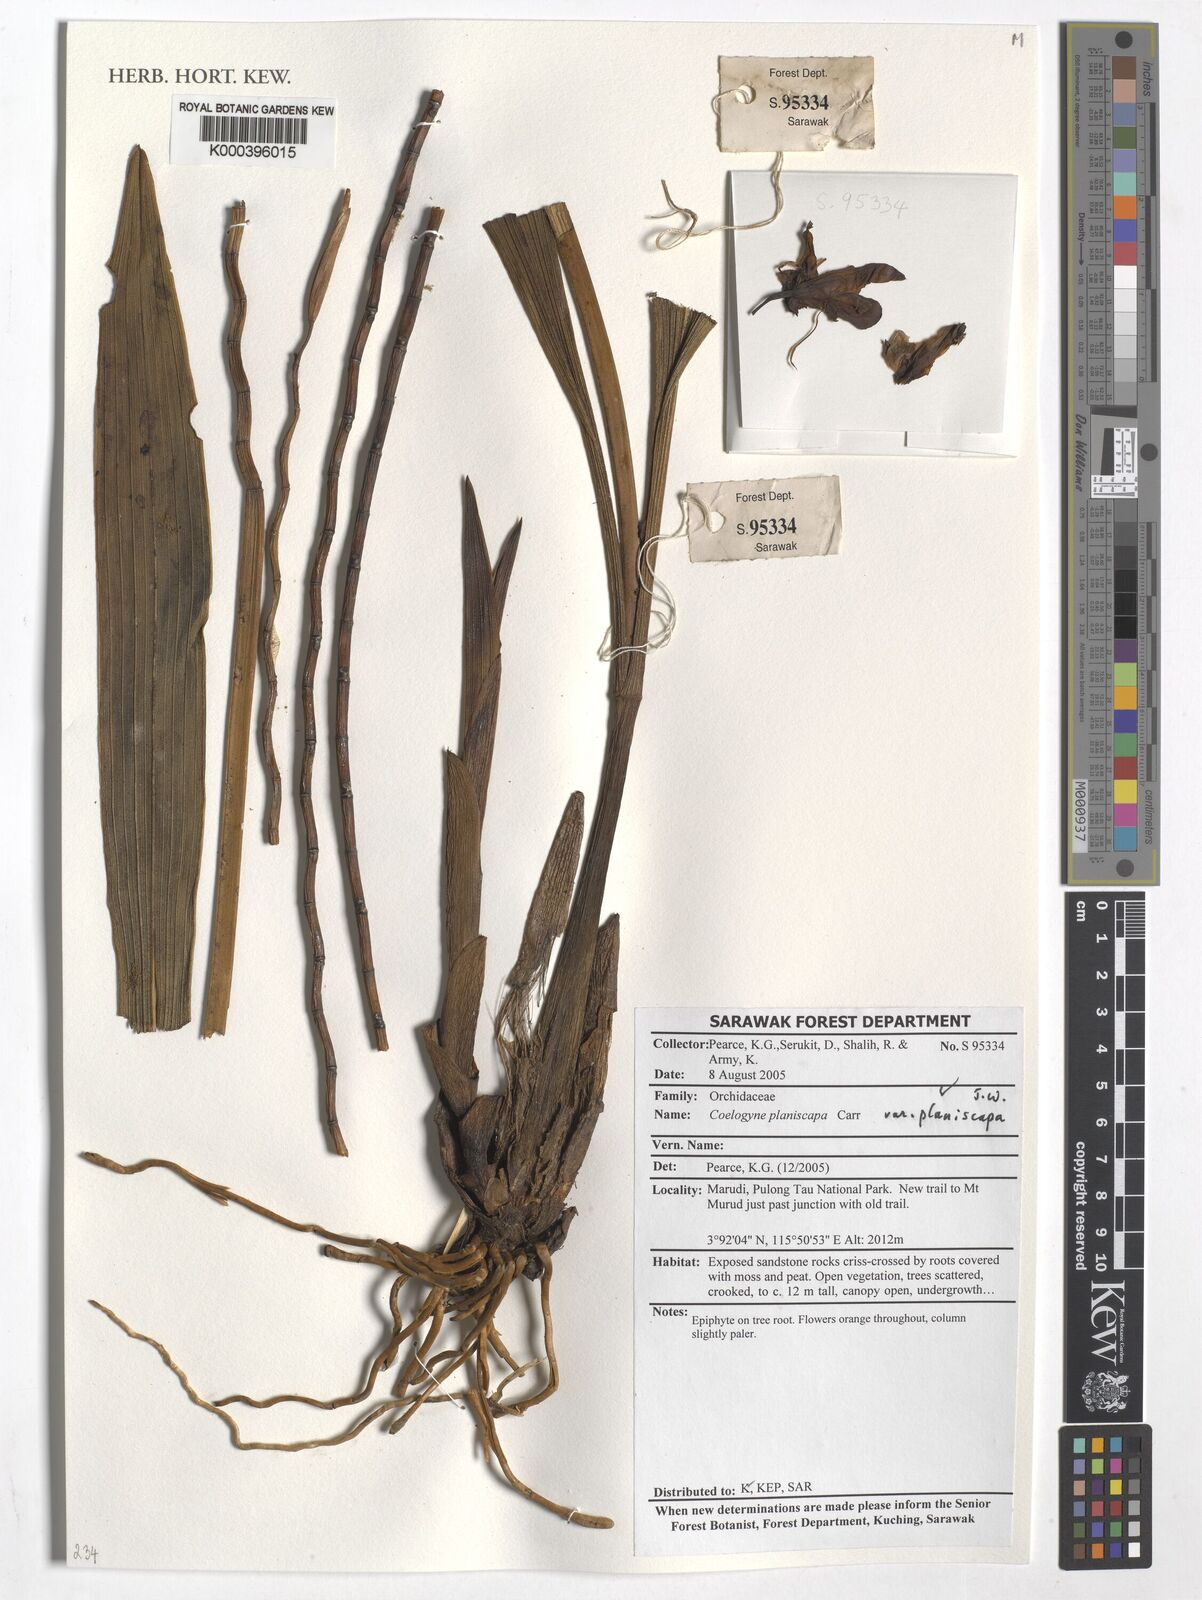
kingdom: Plantae
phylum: Tracheophyta
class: Liliopsida
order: Asparagales
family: Orchidaceae
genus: Coelogyne
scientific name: Coelogyne planiscapa
